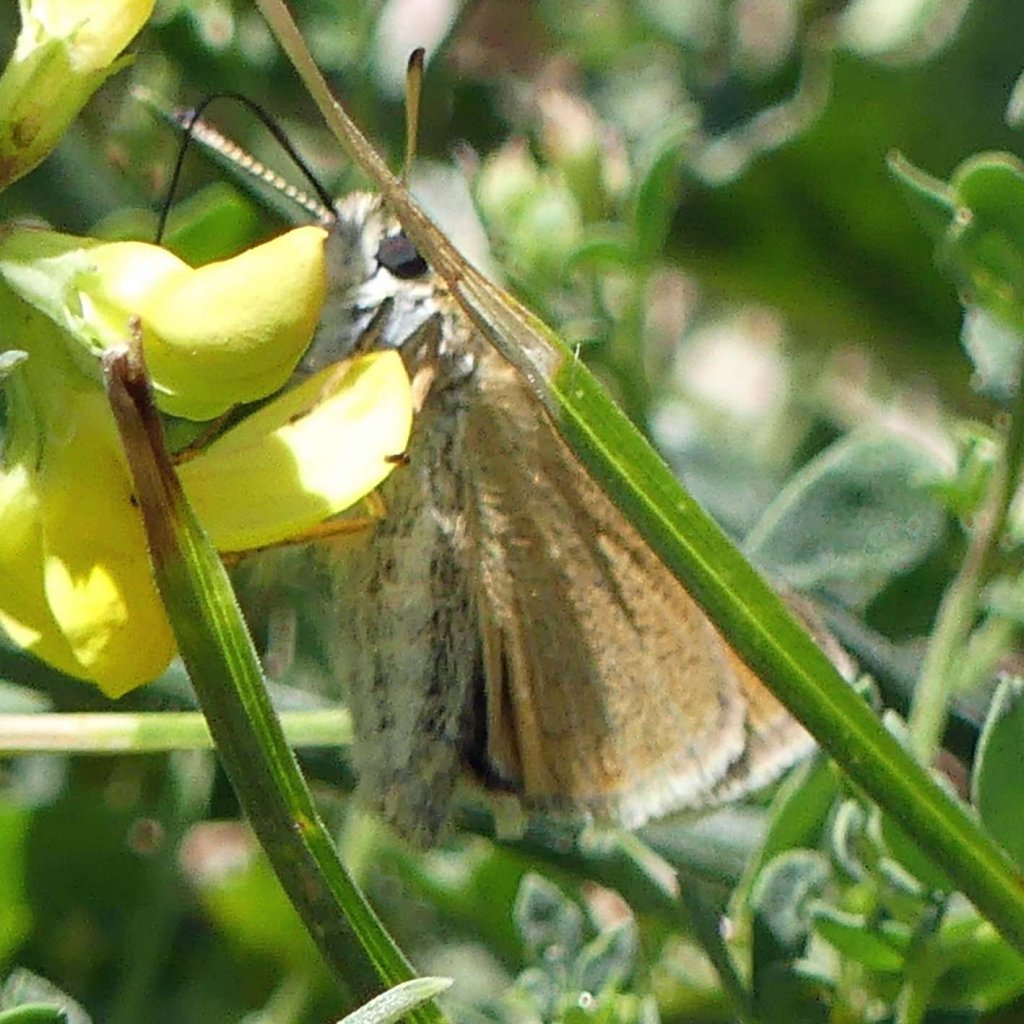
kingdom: Animalia
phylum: Arthropoda
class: Insecta
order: Lepidoptera
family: Hesperiidae
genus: Thymelicus
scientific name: Thymelicus lineola
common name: European Skipper
